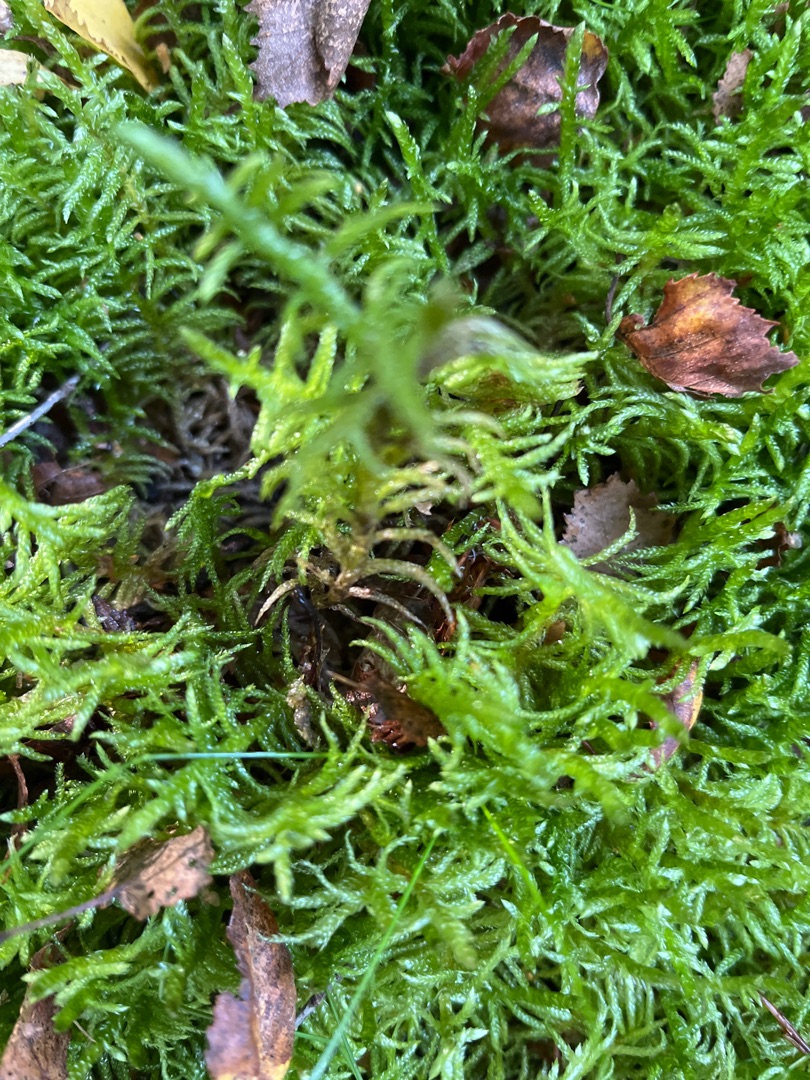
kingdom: Plantae
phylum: Bryophyta
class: Bryopsida
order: Hypnales
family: Brachytheciaceae
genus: Pseudoscleropodium
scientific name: Pseudoscleropodium purum
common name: Hulbladet fedtmos
